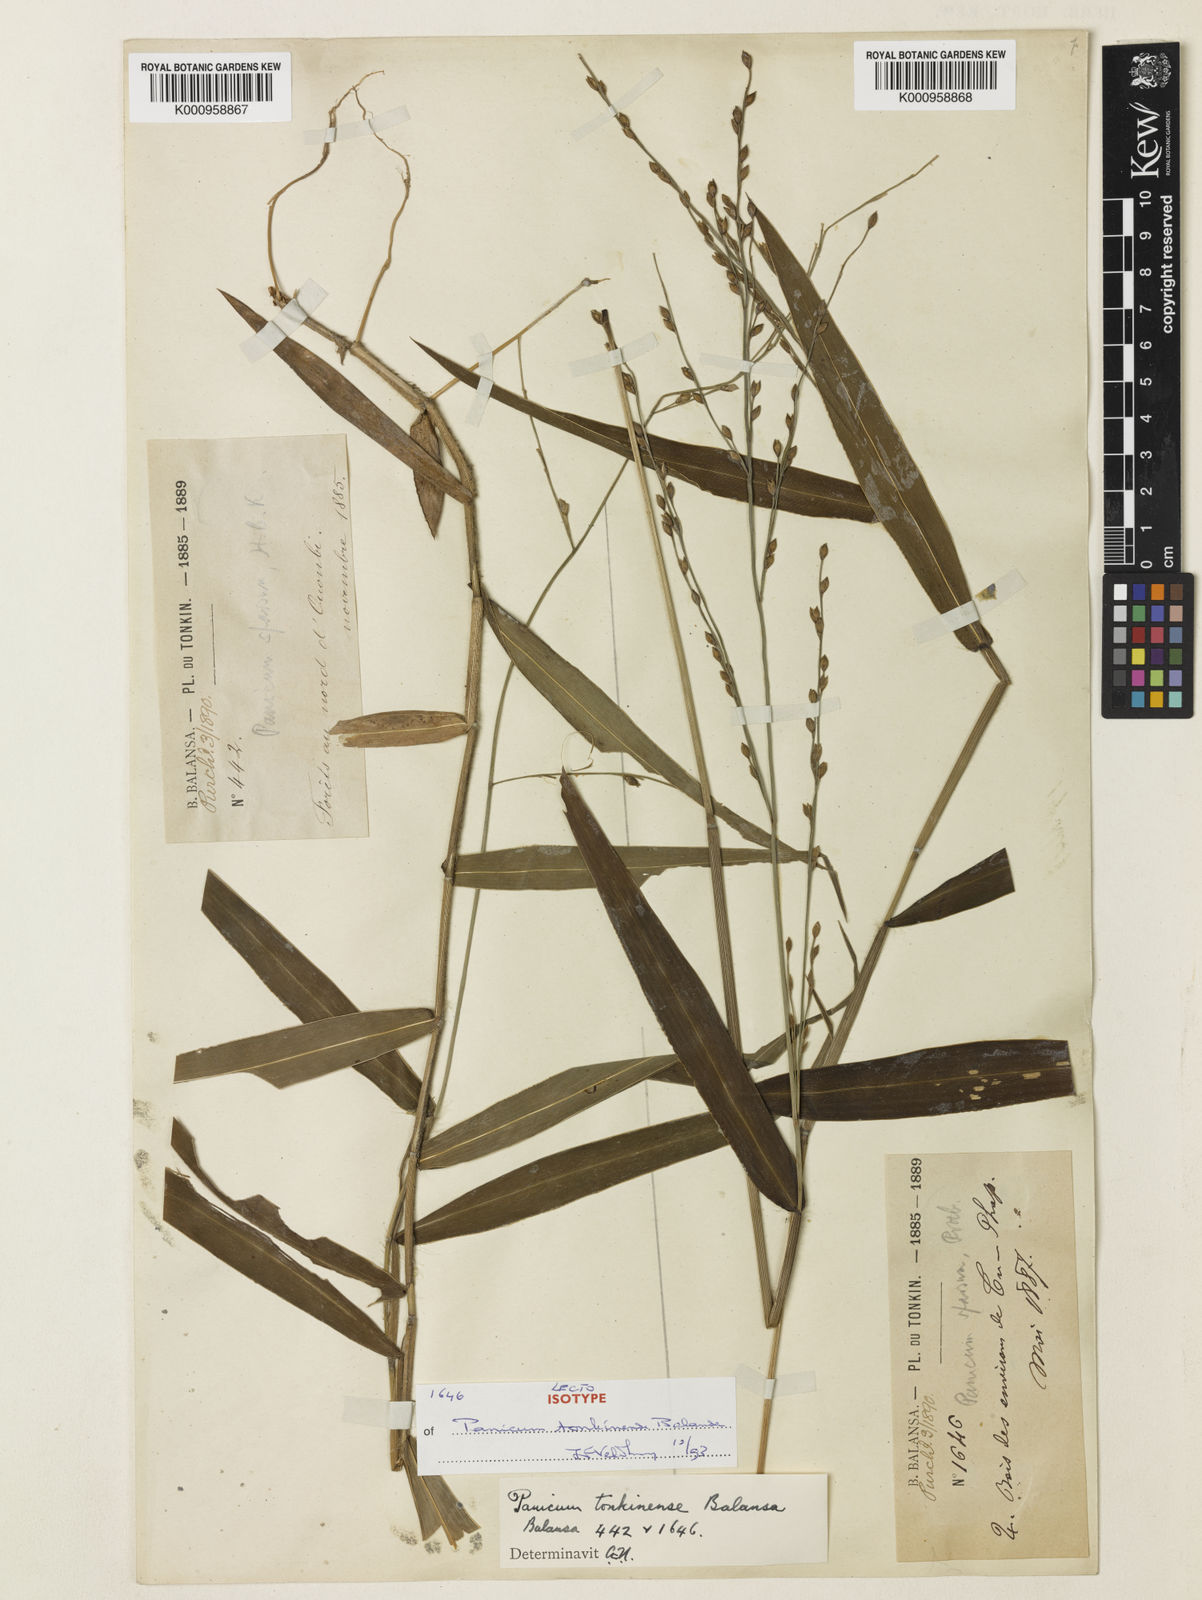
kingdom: Plantae
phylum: Tracheophyta
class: Liliopsida
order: Poales
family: Poaceae
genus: Acroceras
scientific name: Acroceras
